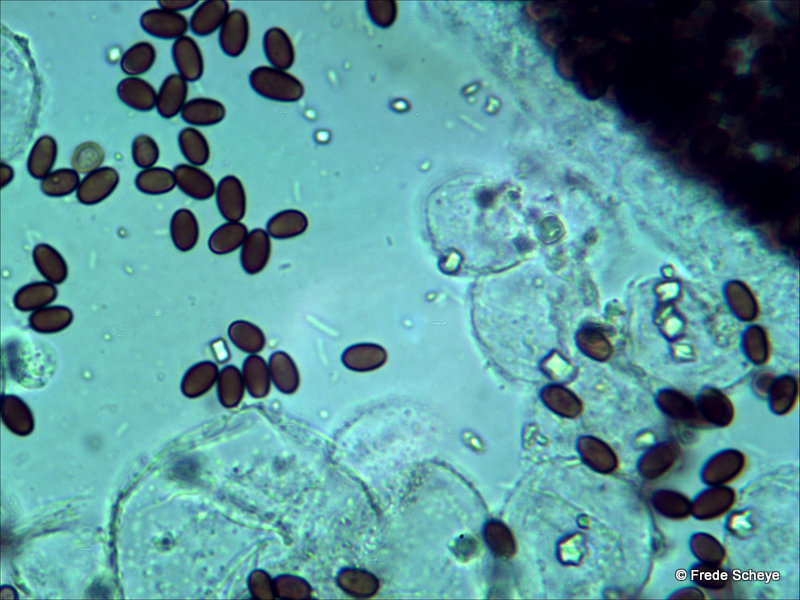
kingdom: Fungi
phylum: Basidiomycota
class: Agaricomycetes
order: Agaricales
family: Psathyrellaceae
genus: Coprinopsis
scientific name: Coprinopsis stercorea
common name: pjusket blækhat
